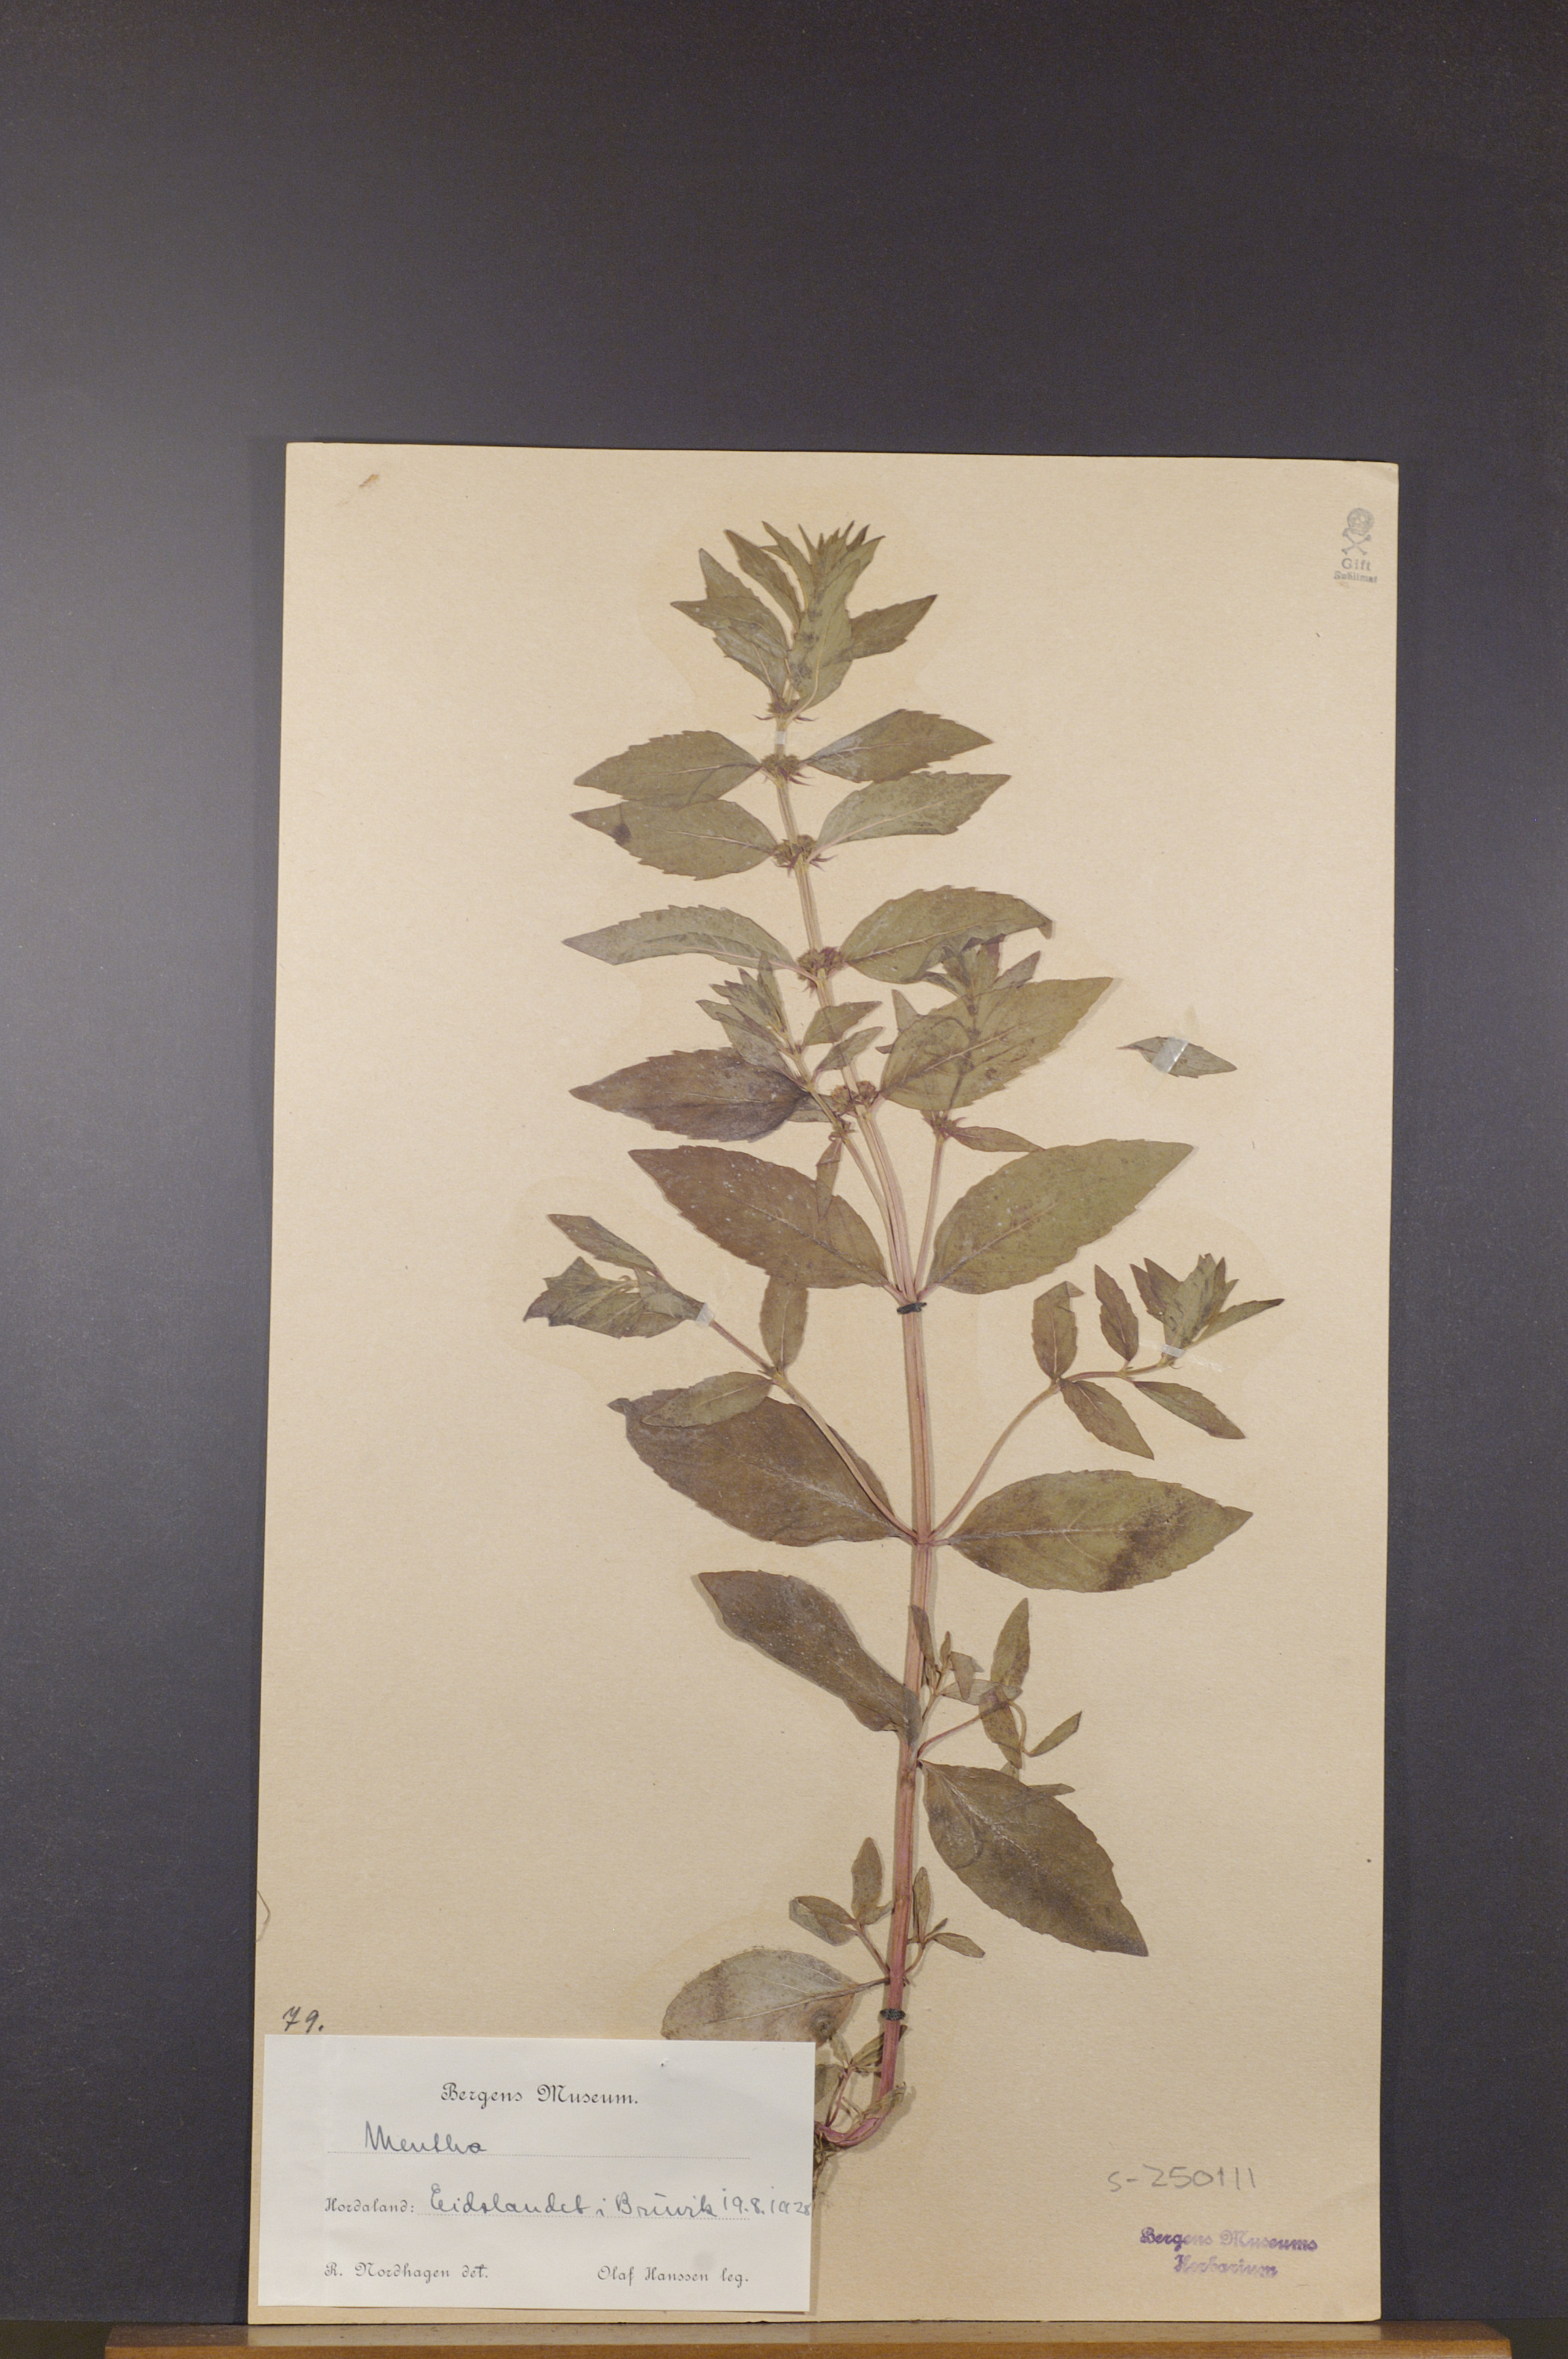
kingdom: Plantae
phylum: Tracheophyta
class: Magnoliopsida
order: Lamiales
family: Lamiaceae
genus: Mentha
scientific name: Mentha
